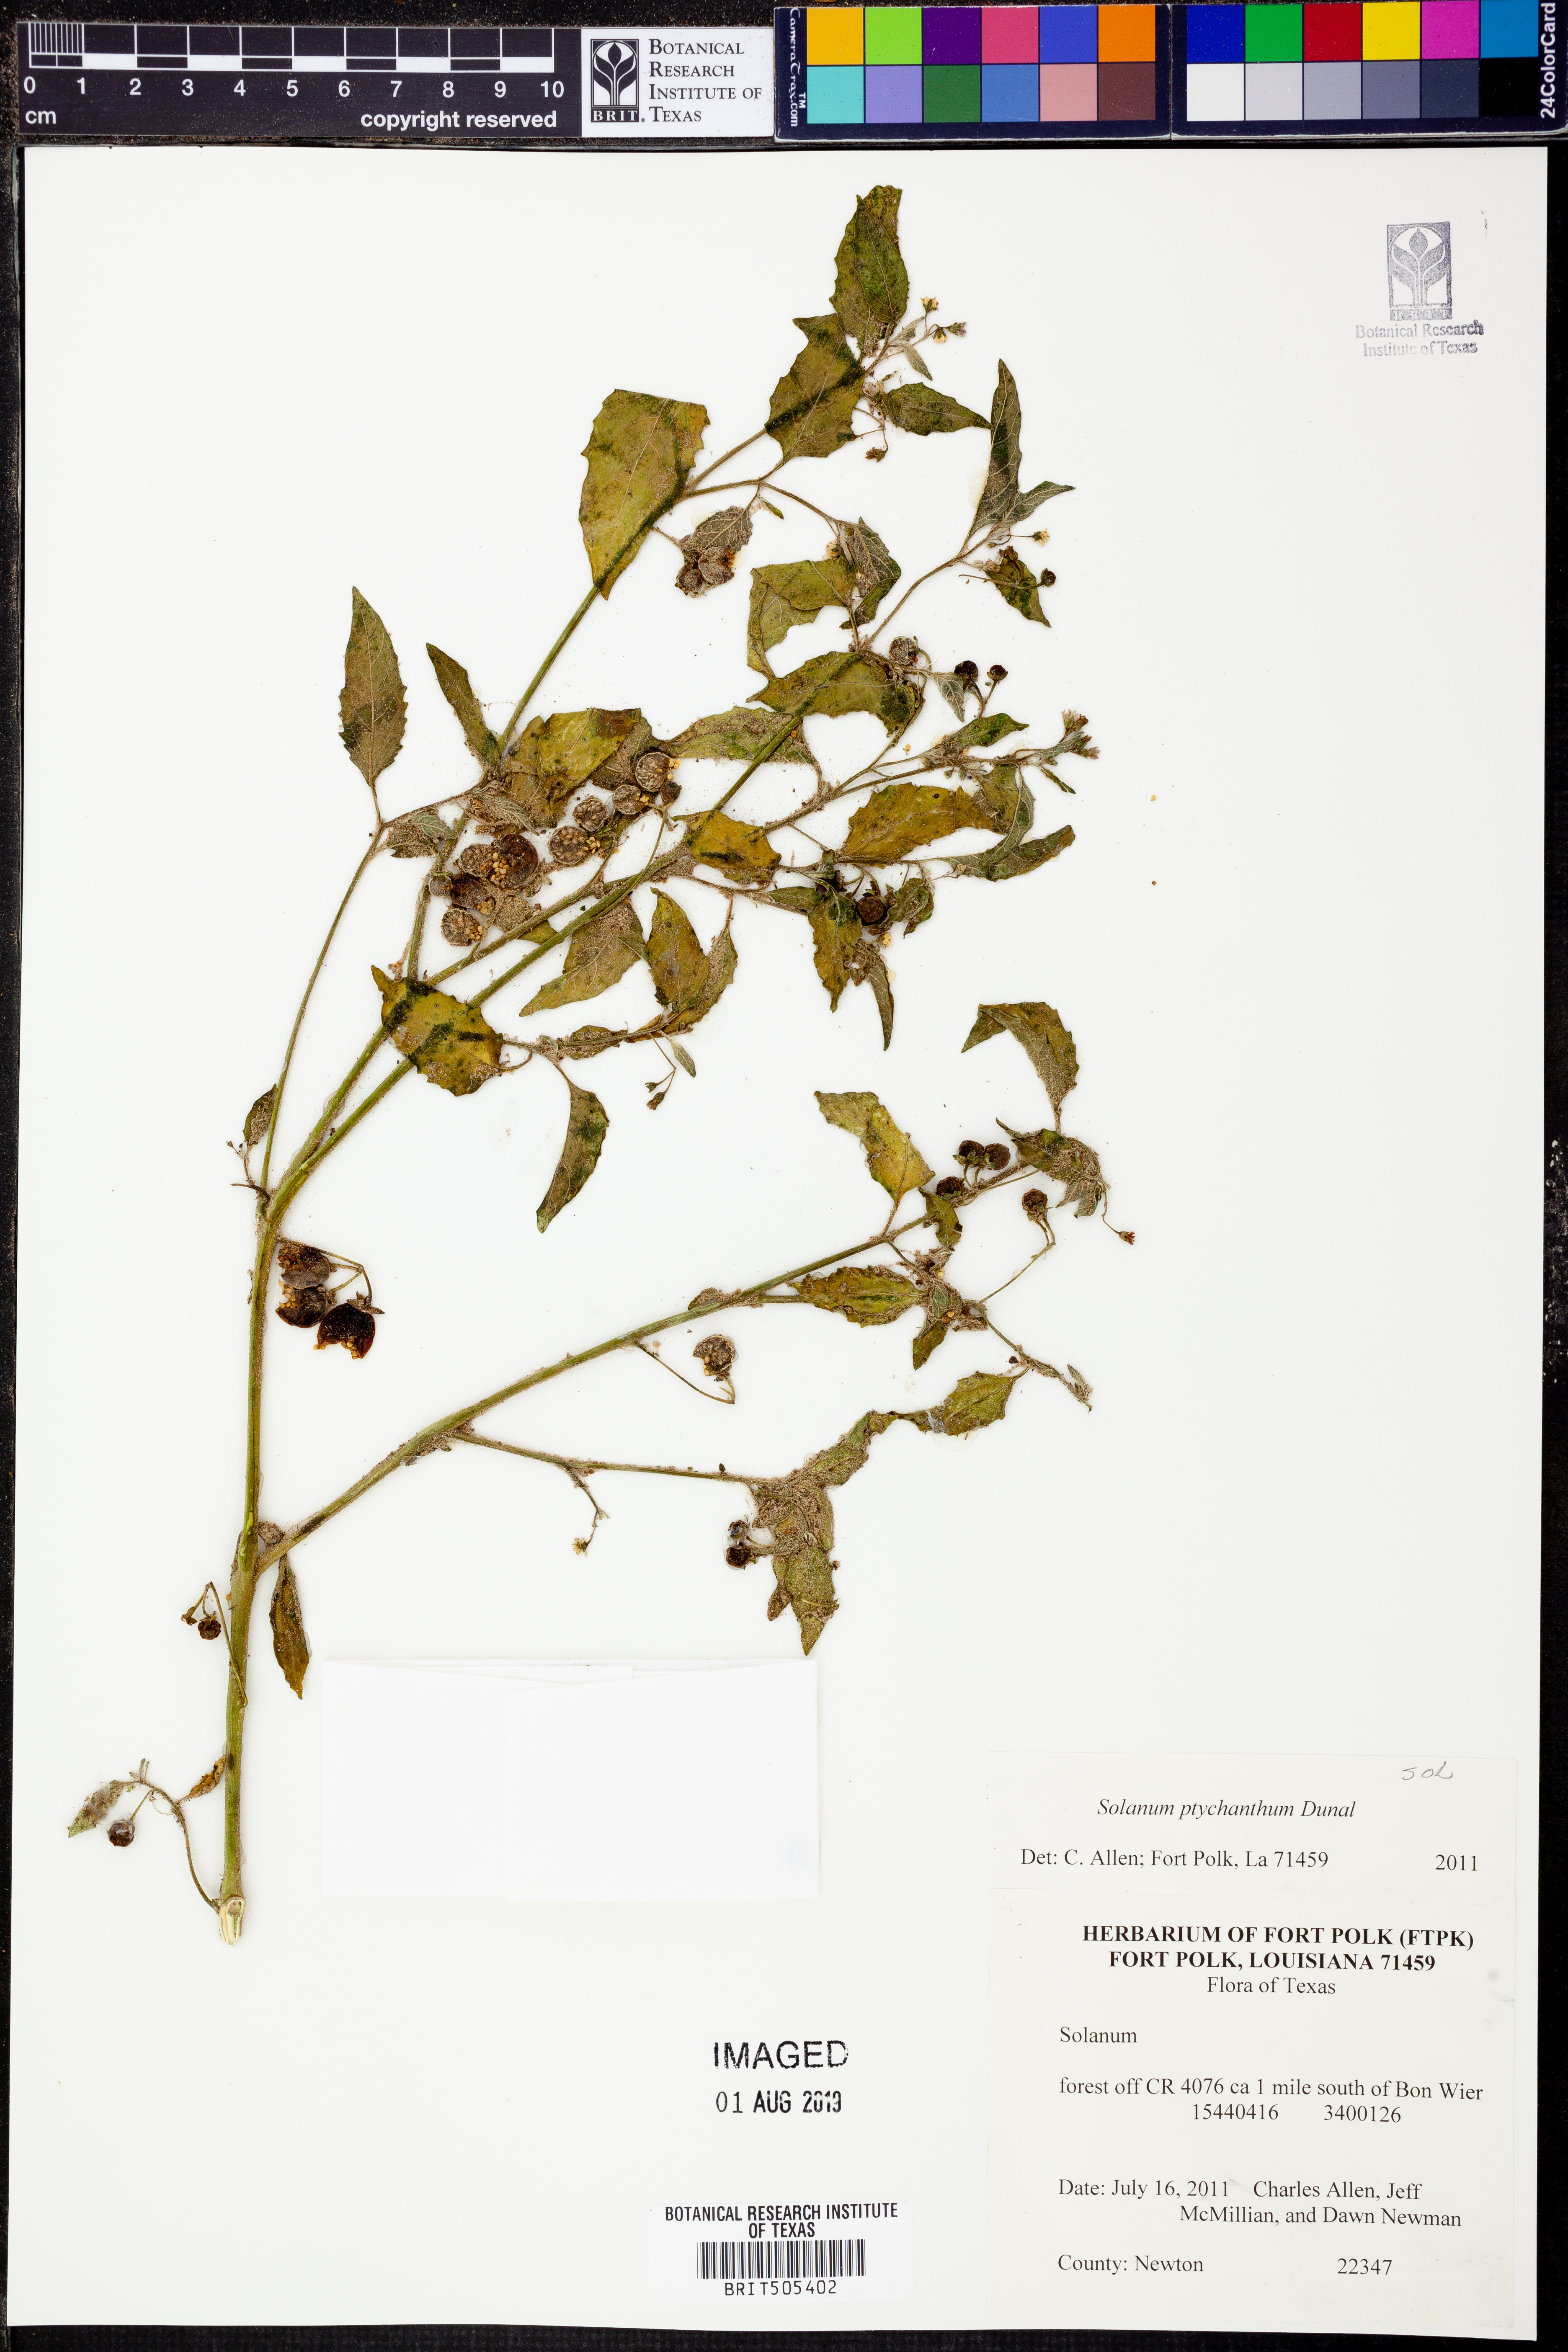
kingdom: Plantae
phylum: Tracheophyta
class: Magnoliopsida
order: Solanales
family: Solanaceae
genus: Solanum
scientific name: Solanum americanum
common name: American black nightshade
